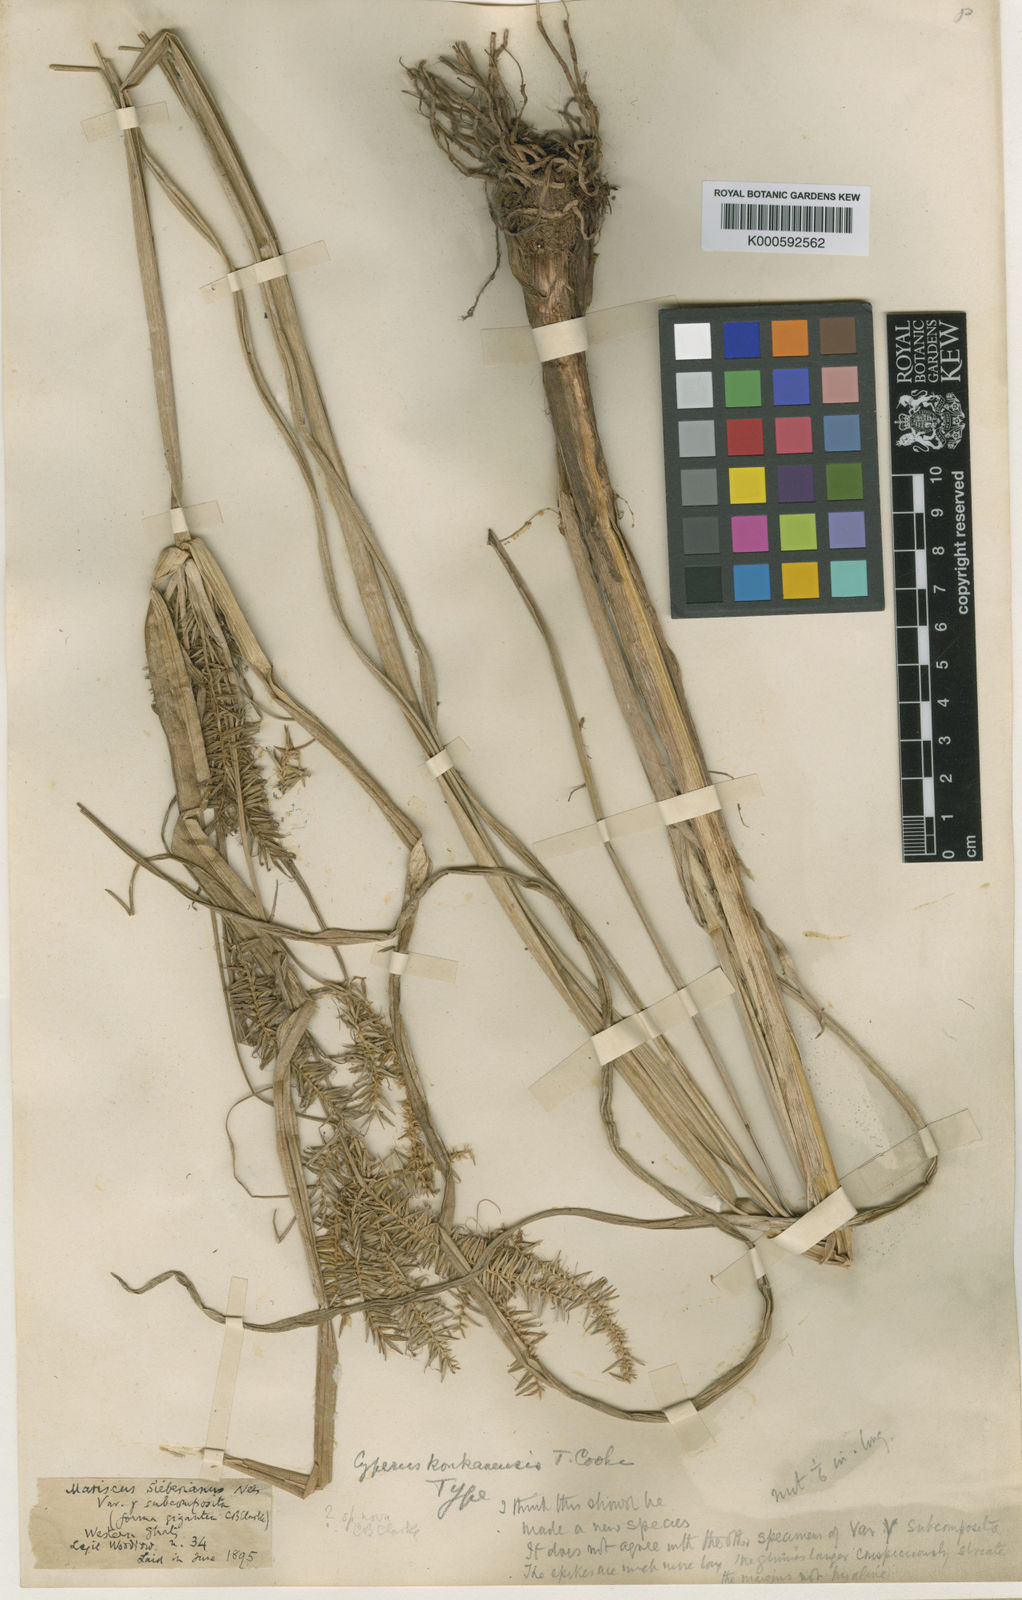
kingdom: Plantae
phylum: Tracheophyta
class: Liliopsida
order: Poales
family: Cyperaceae
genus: Cyperus
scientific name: Cyperus cyperoides
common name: Pacific island flat sedge
